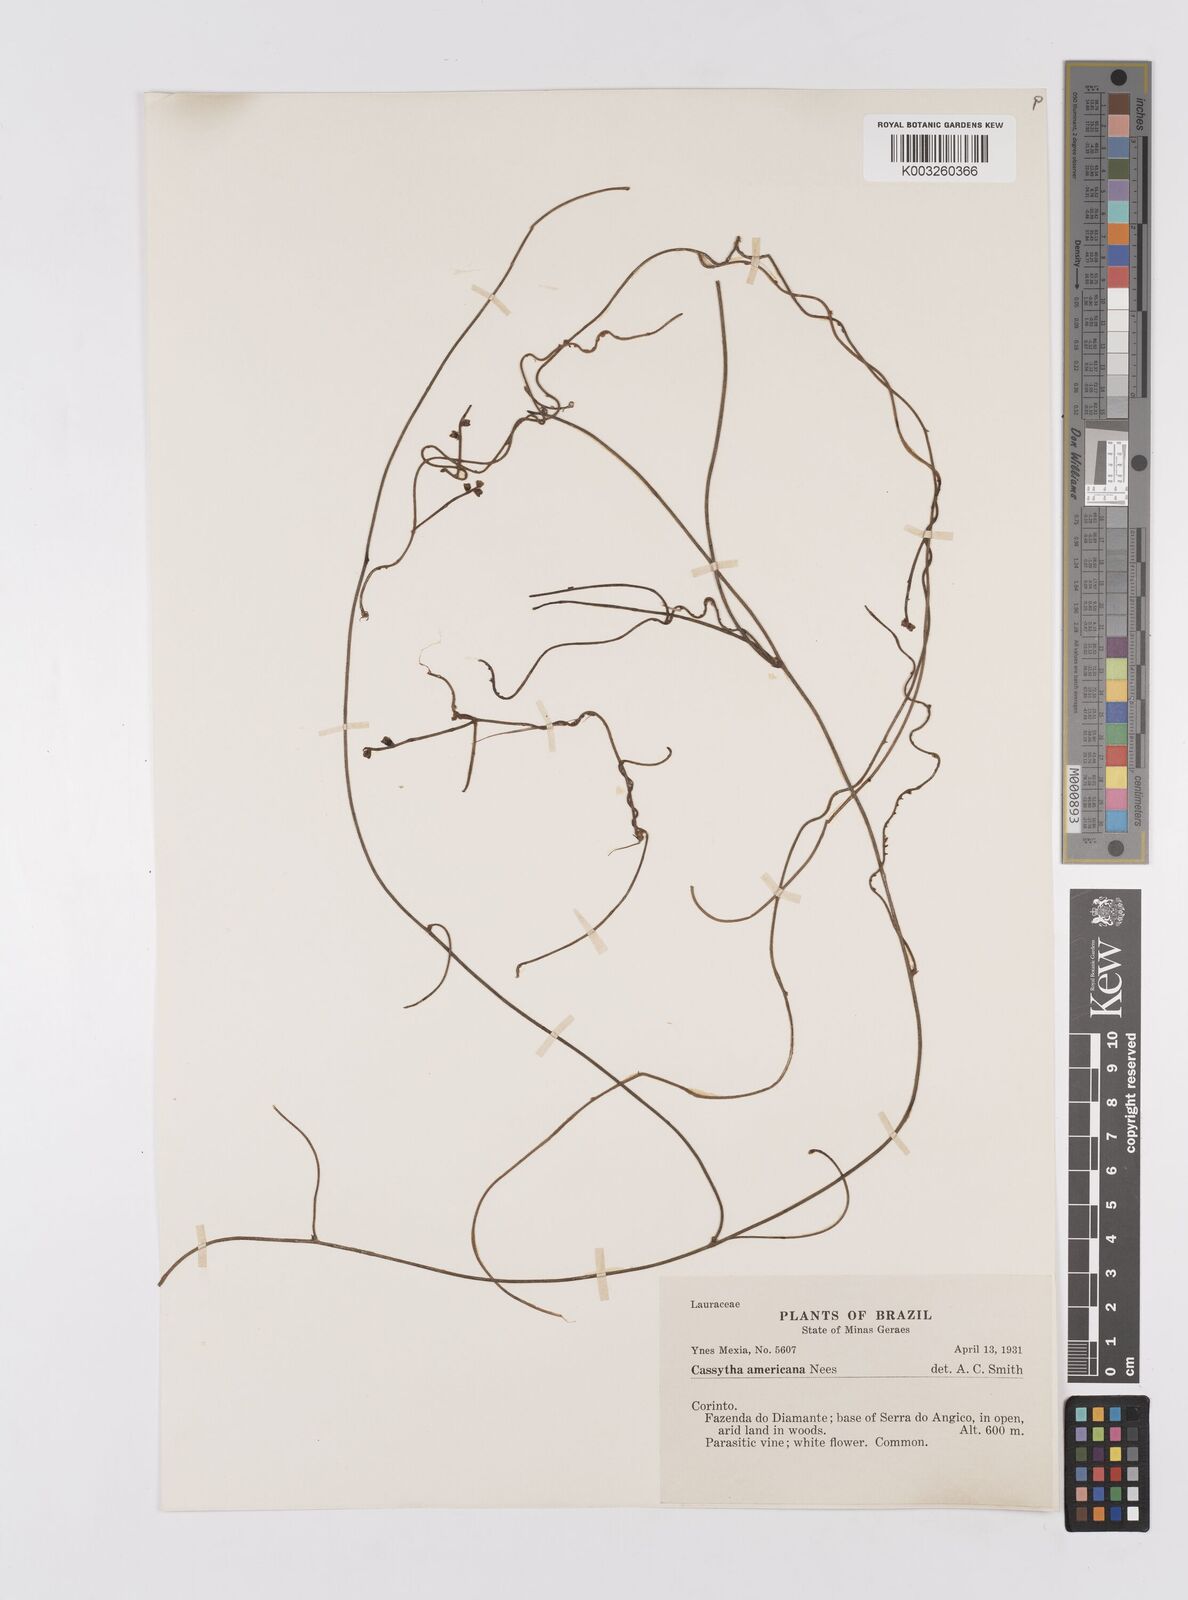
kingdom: Plantae
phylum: Tracheophyta
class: Magnoliopsida
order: Laurales
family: Lauraceae
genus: Cassytha
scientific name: Cassytha filiformis
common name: Dodder-laurel
